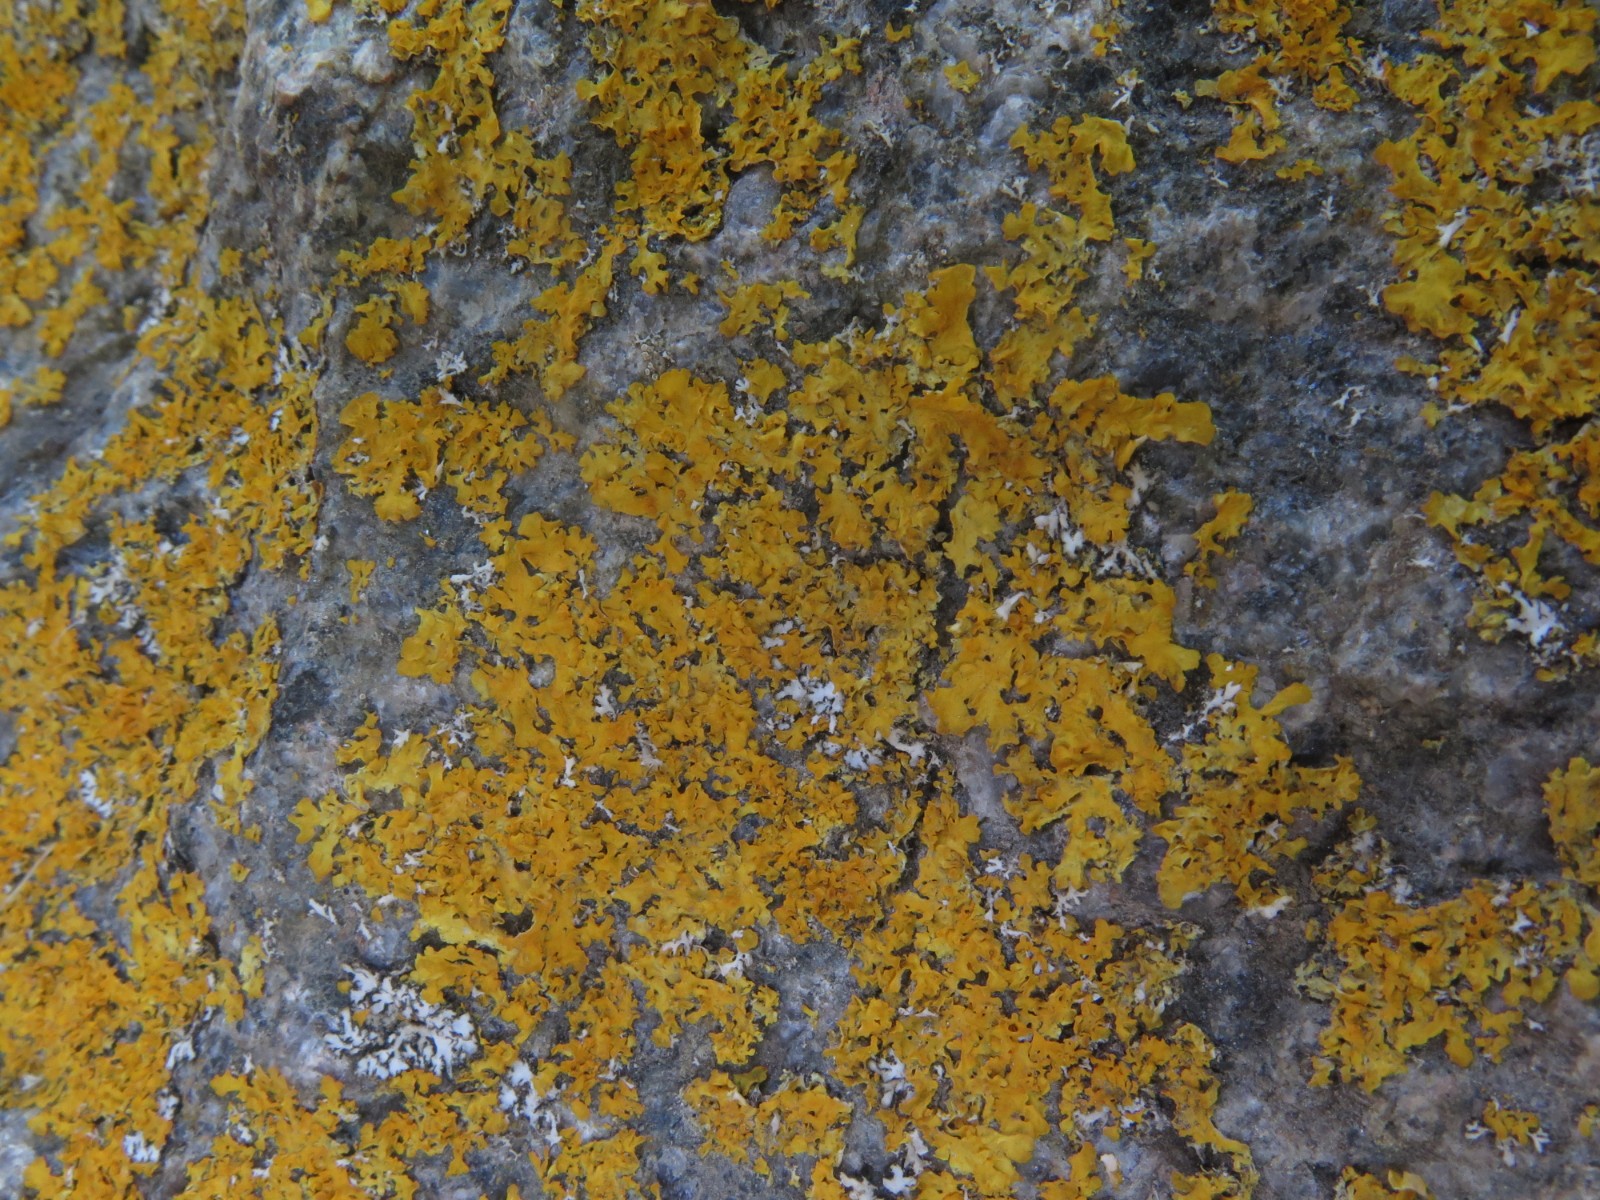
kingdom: Fungi
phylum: Ascomycota
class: Lecanoromycetes
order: Teloschistales
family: Teloschistaceae
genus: Xanthomendoza
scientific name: Xanthomendoza oregana
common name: Poelts væggelav
